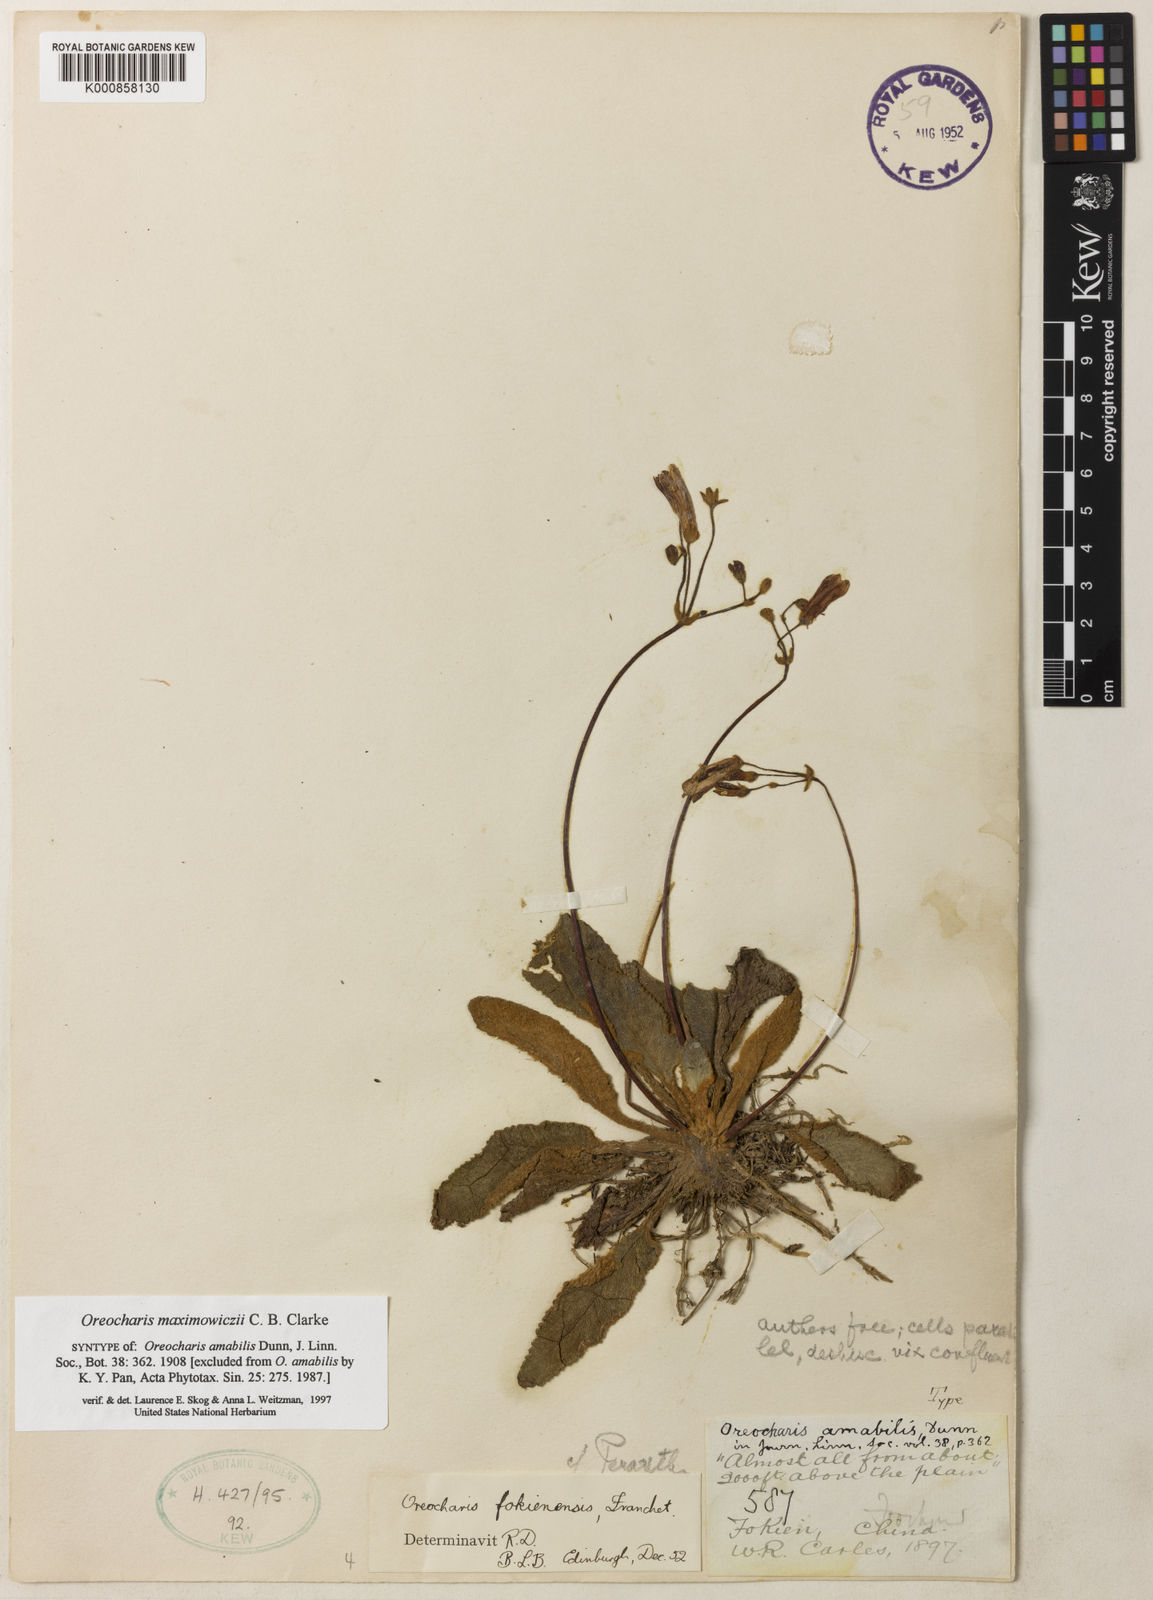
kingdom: Plantae
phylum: Tracheophyta
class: Magnoliopsida
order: Lamiales
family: Gesneriaceae
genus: Oreocharis
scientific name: Oreocharis maximowiczii
